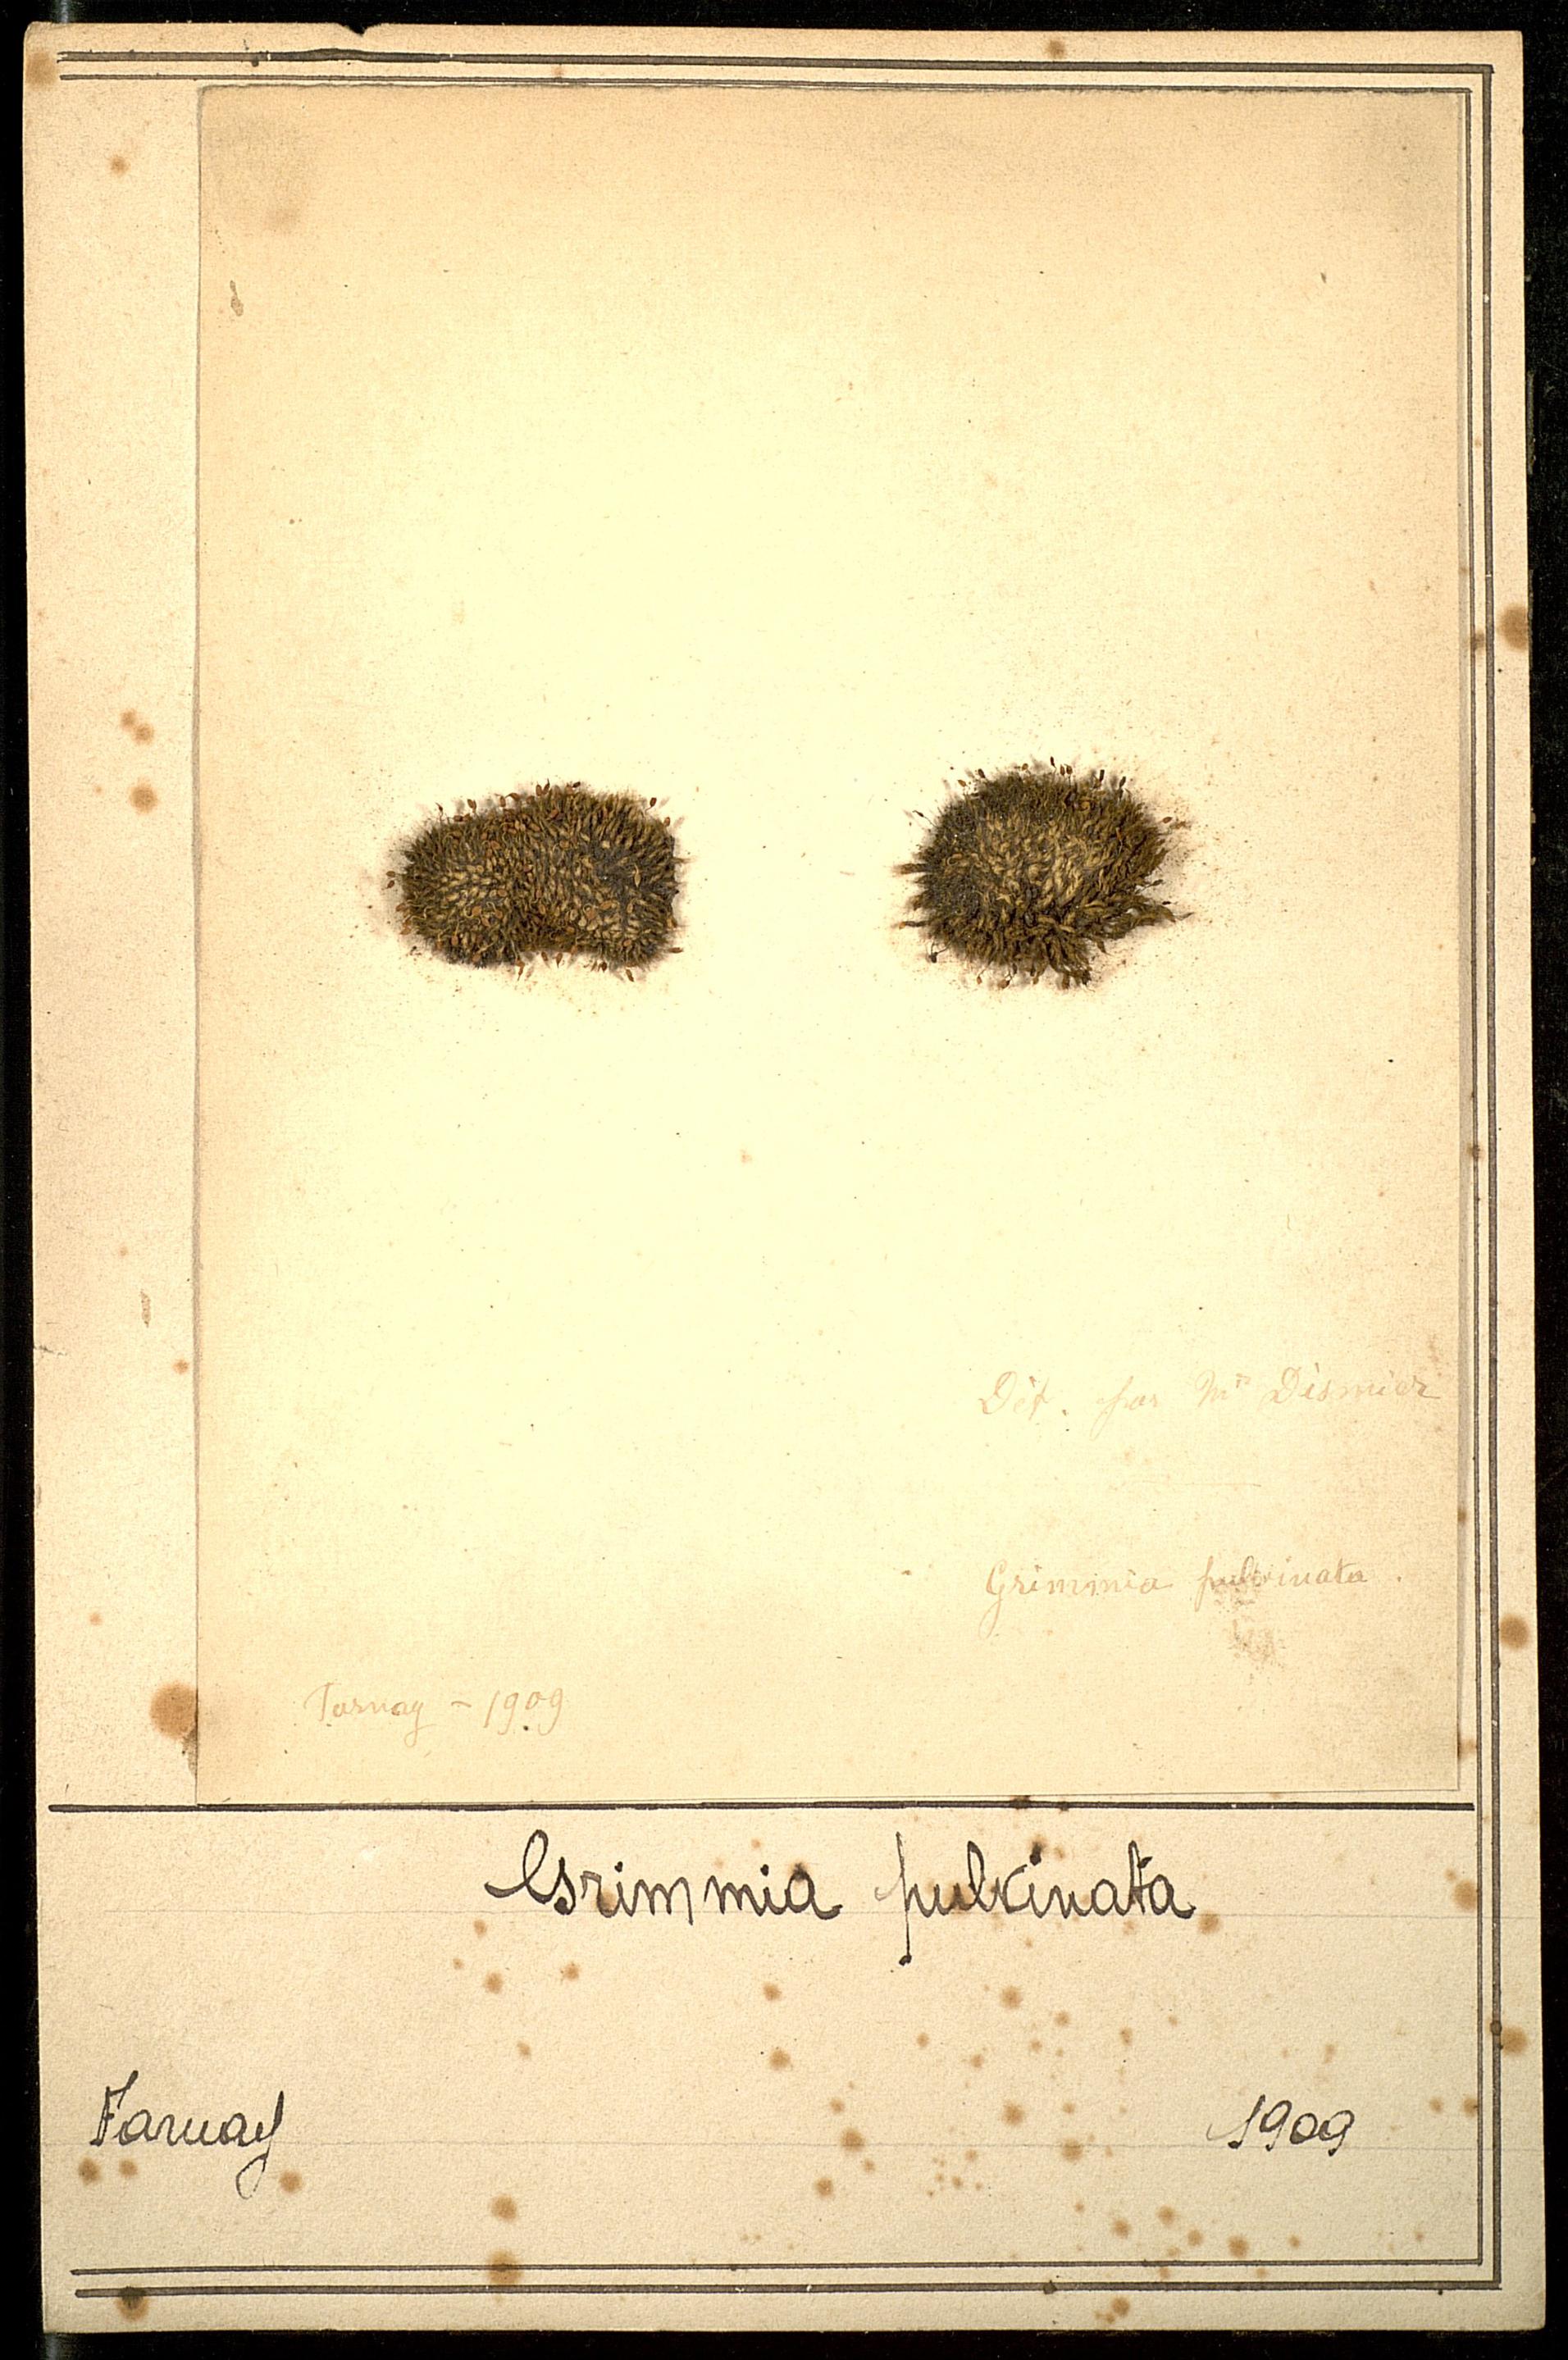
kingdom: Plantae
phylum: Bryophyta
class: Bryopsida
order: Grimmiales
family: Grimmiaceae
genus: Grimmia
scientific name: Grimmia pulvinata
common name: Grey-cushioned grimmia
